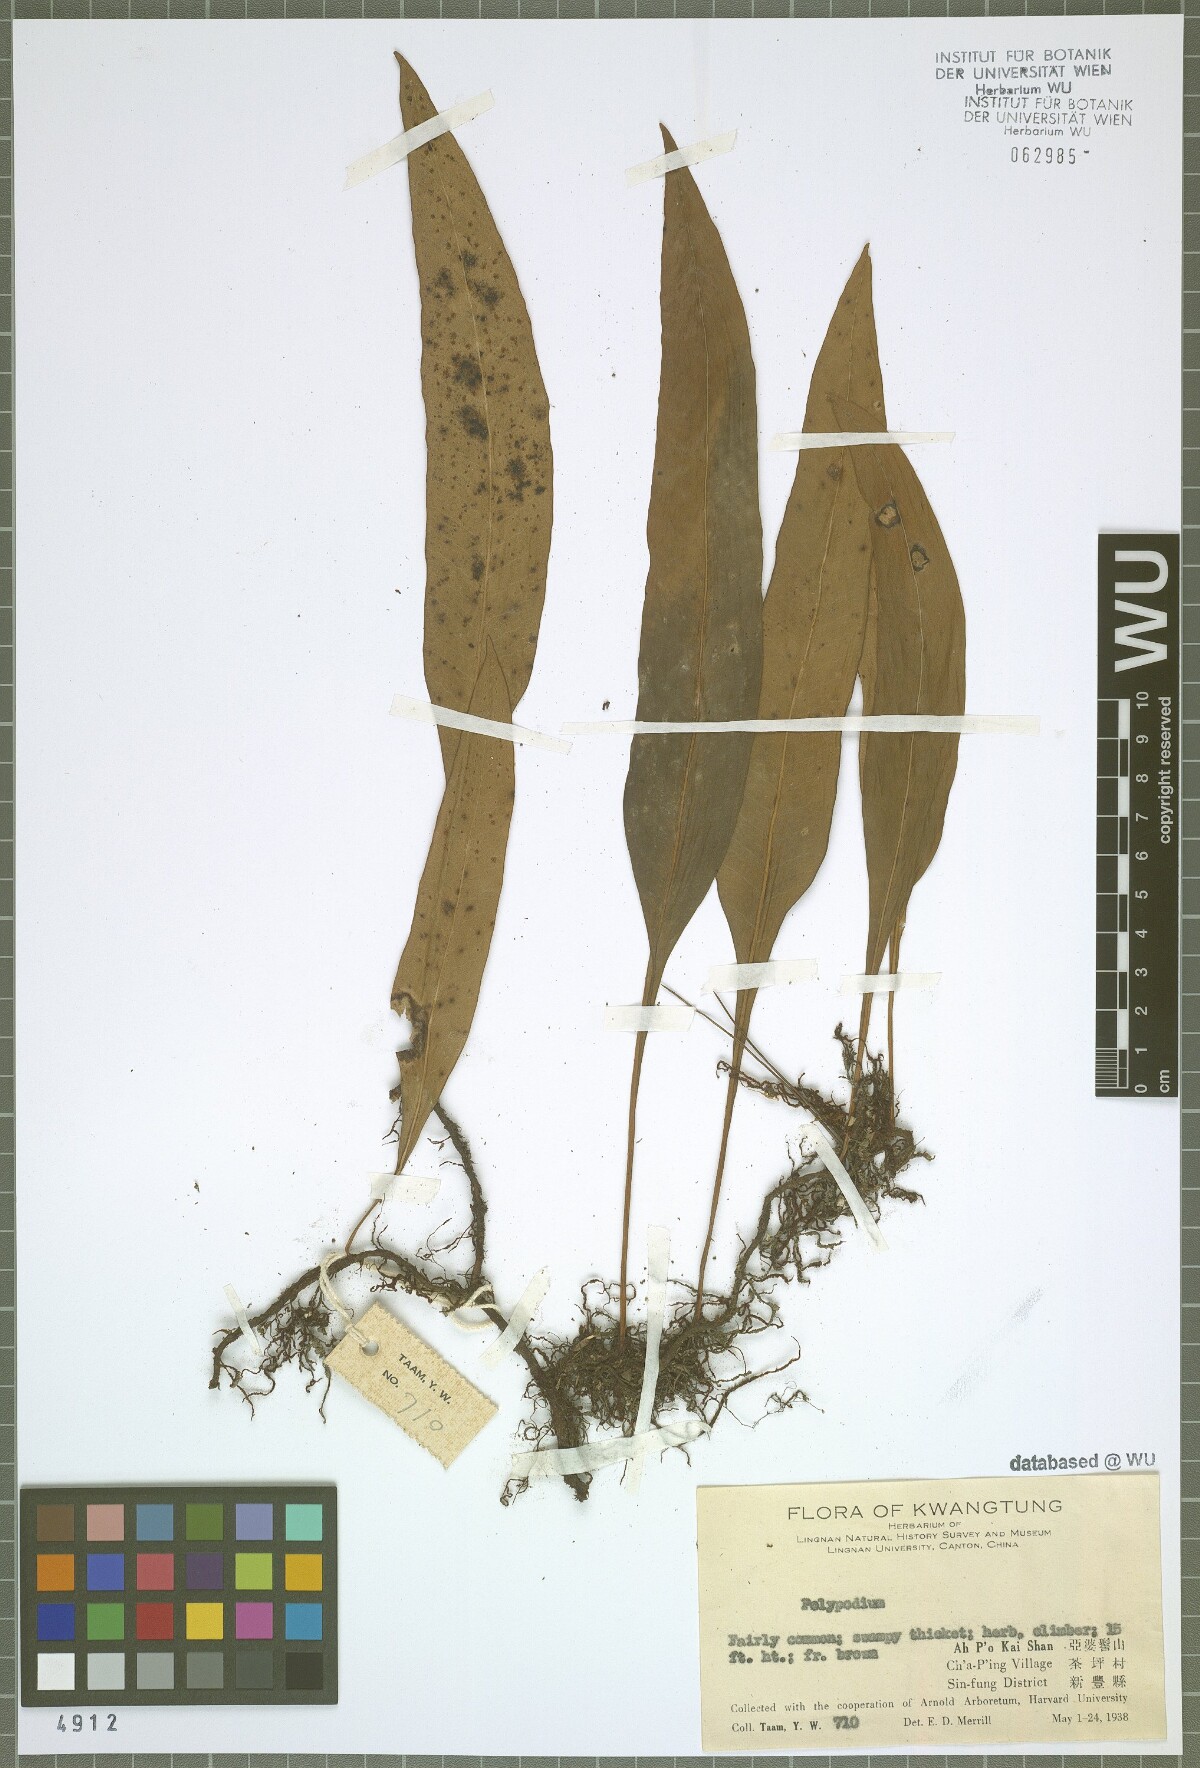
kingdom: Plantae
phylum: Tracheophyta
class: Polypodiopsida
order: Polypodiales
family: Polypodiaceae
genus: Polypodium
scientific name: Polypodium
